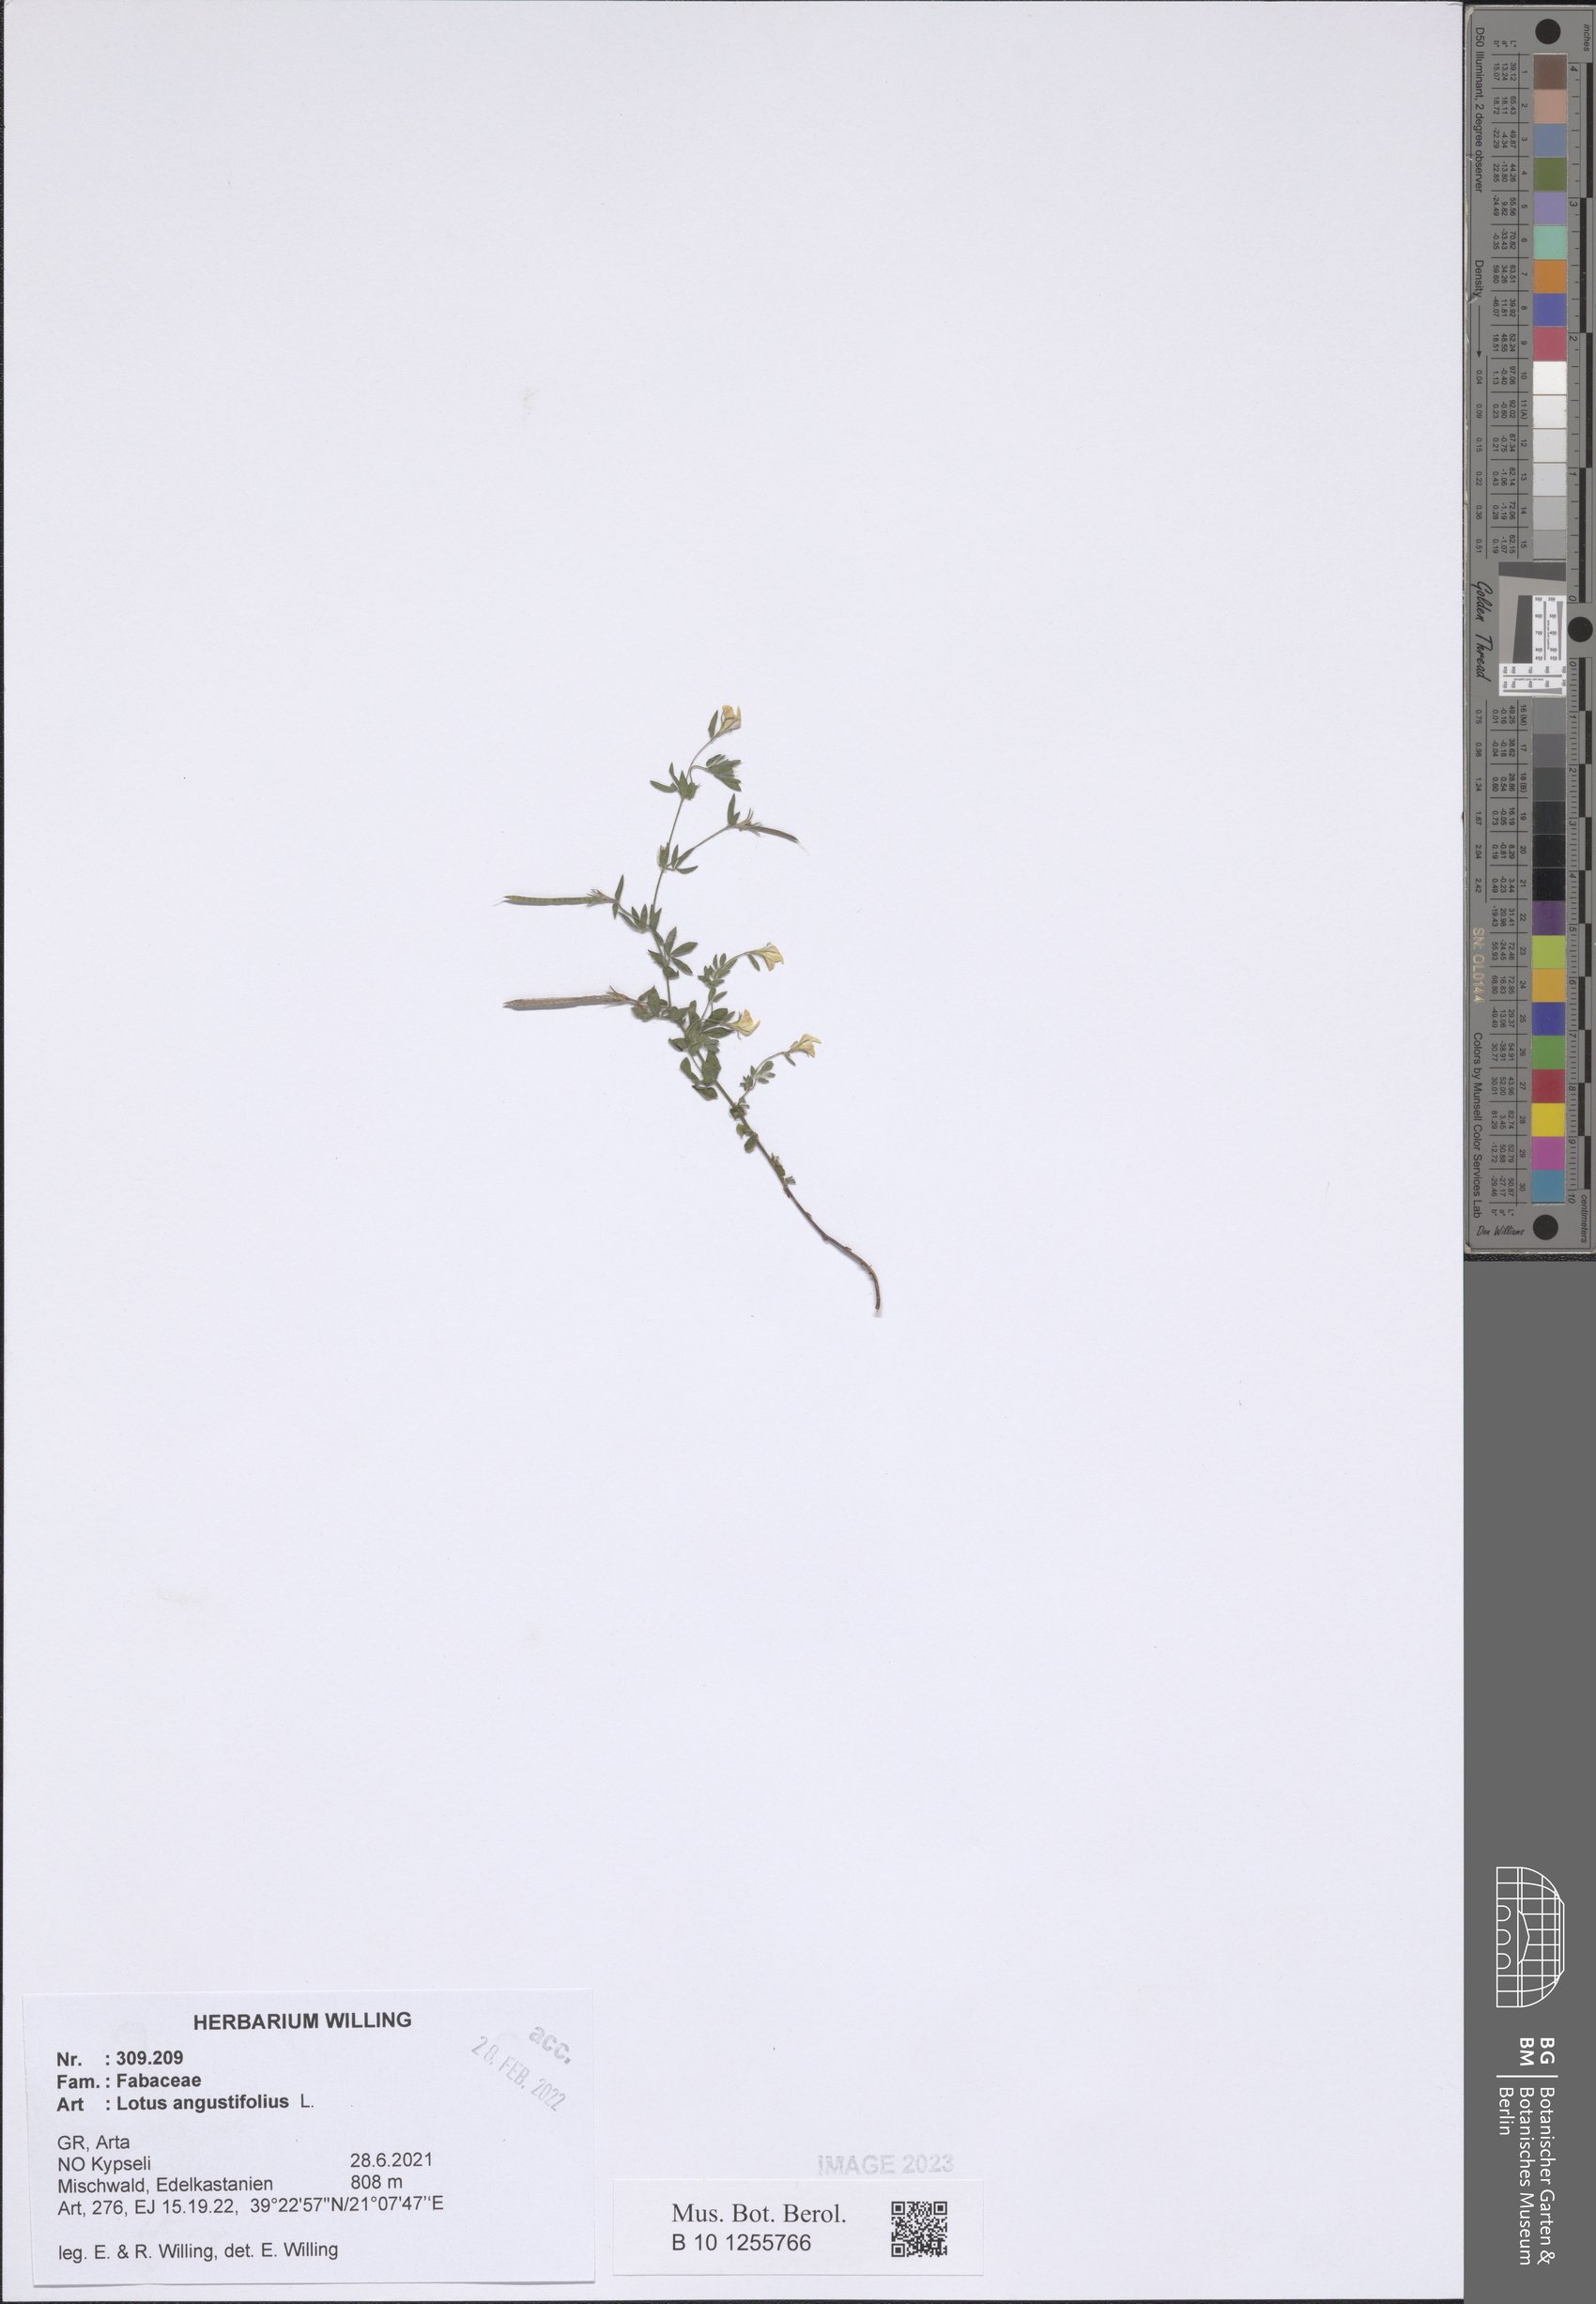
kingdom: Plantae
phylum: Tracheophyta
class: Magnoliopsida
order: Fabales
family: Fabaceae
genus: Lotus
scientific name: Lotus angustissimus
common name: Slender bird's-foot trefoil
